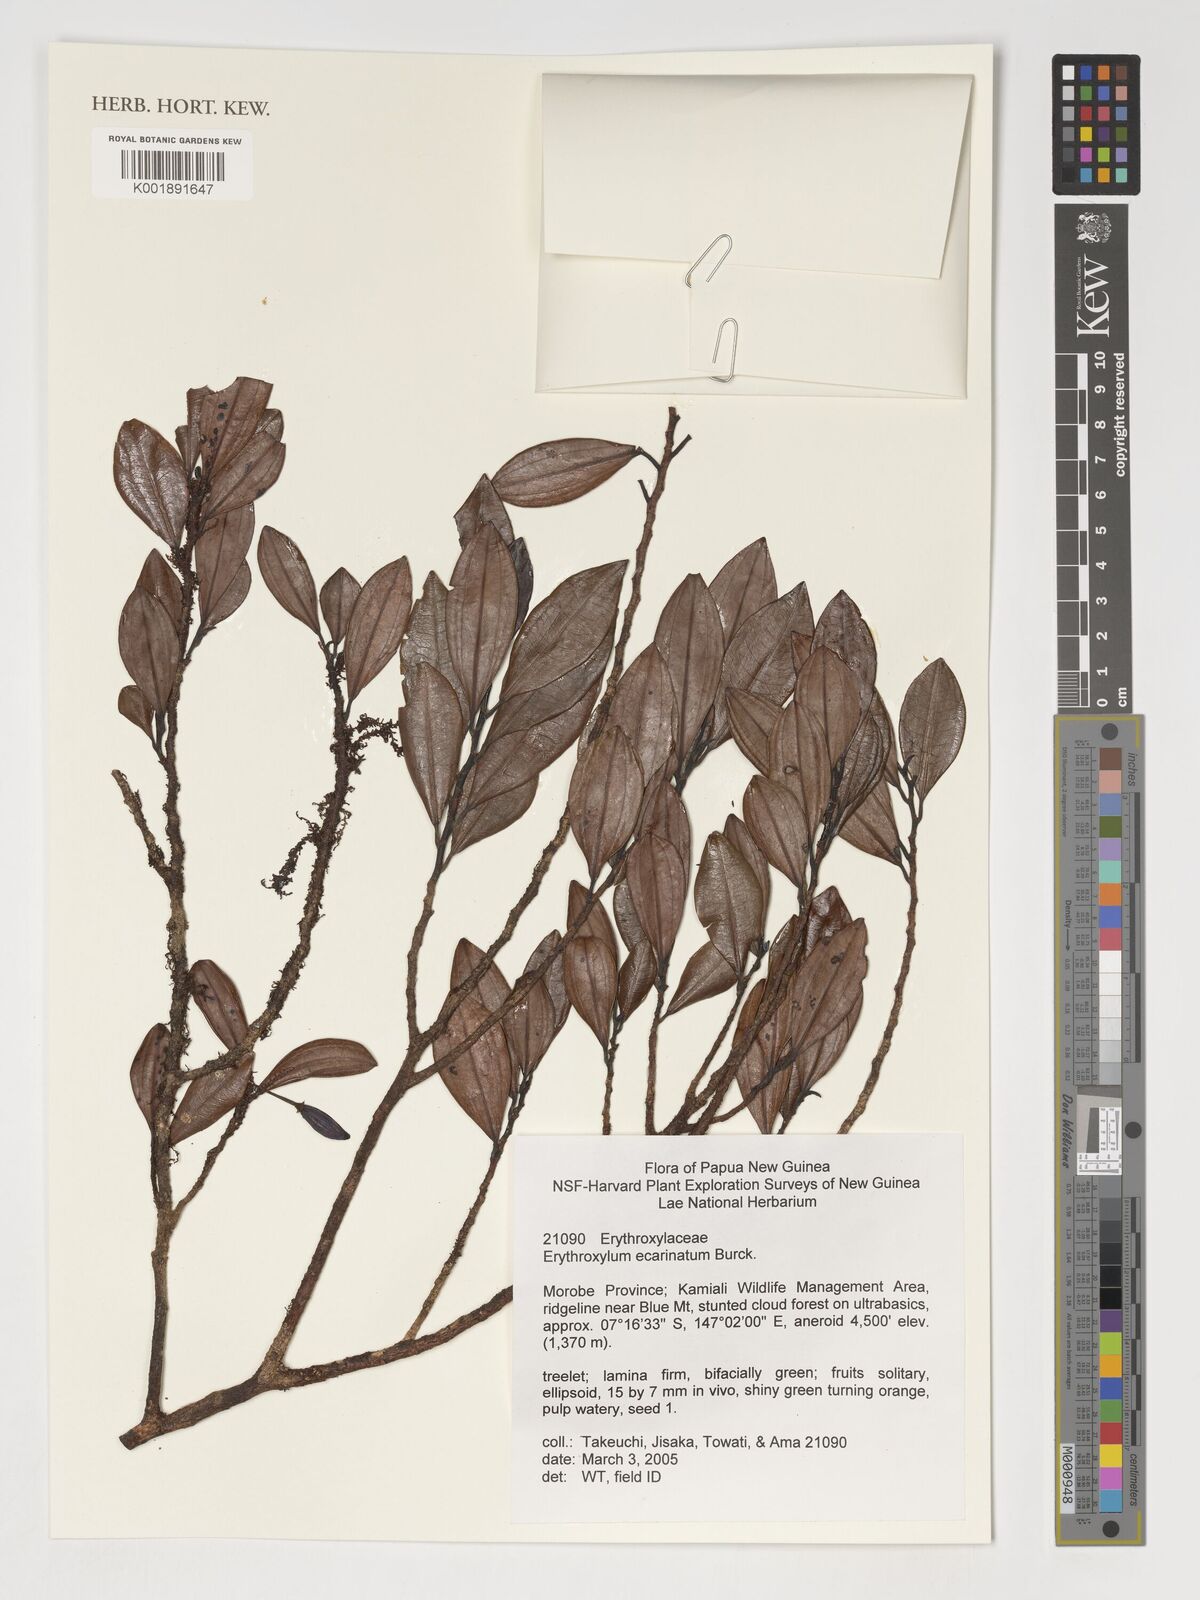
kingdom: Plantae
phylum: Tracheophyta
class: Magnoliopsida
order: Malpighiales
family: Erythroxylaceae
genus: Erythroxylum
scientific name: Erythroxylum
